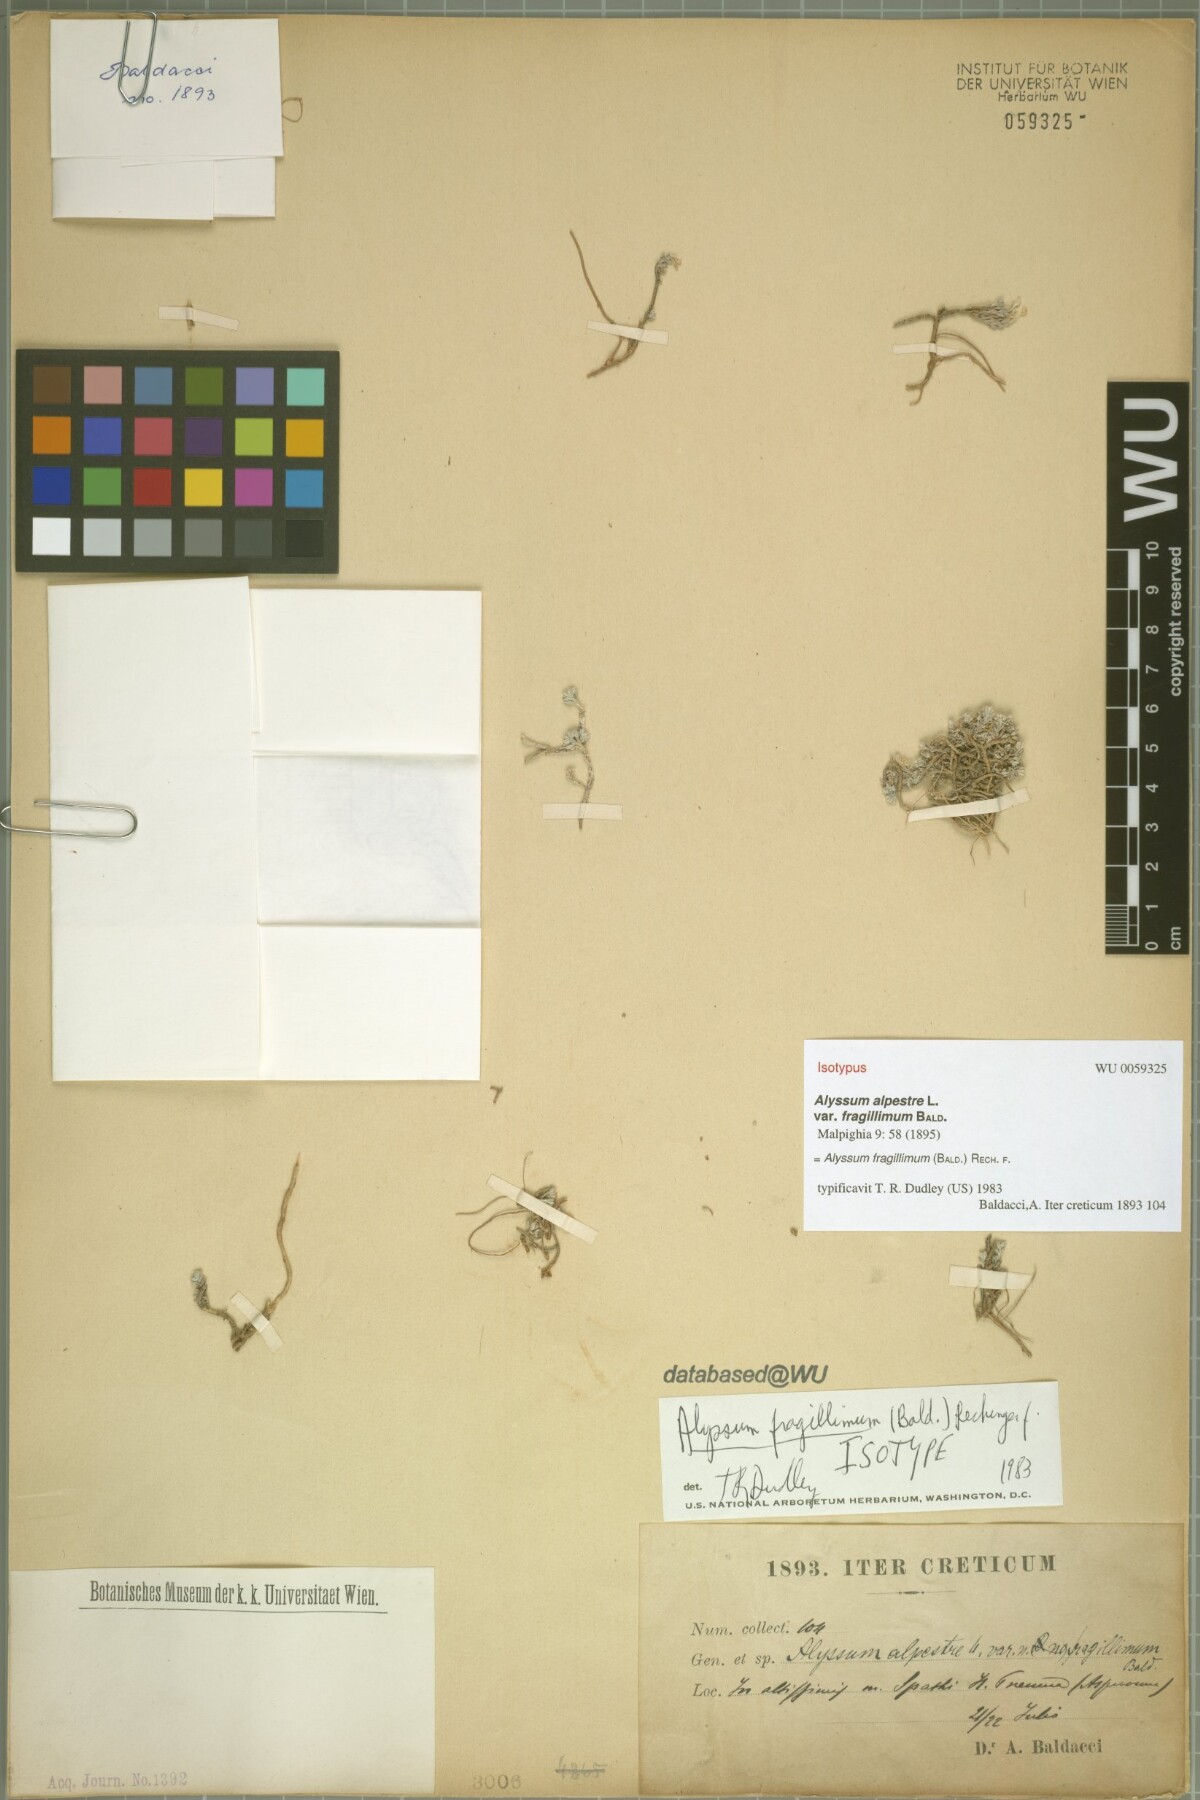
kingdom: Plantae
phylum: Tracheophyta
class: Magnoliopsida
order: Brassicales
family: Brassicaceae
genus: Odontarrhena
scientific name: Odontarrhena fragillima
